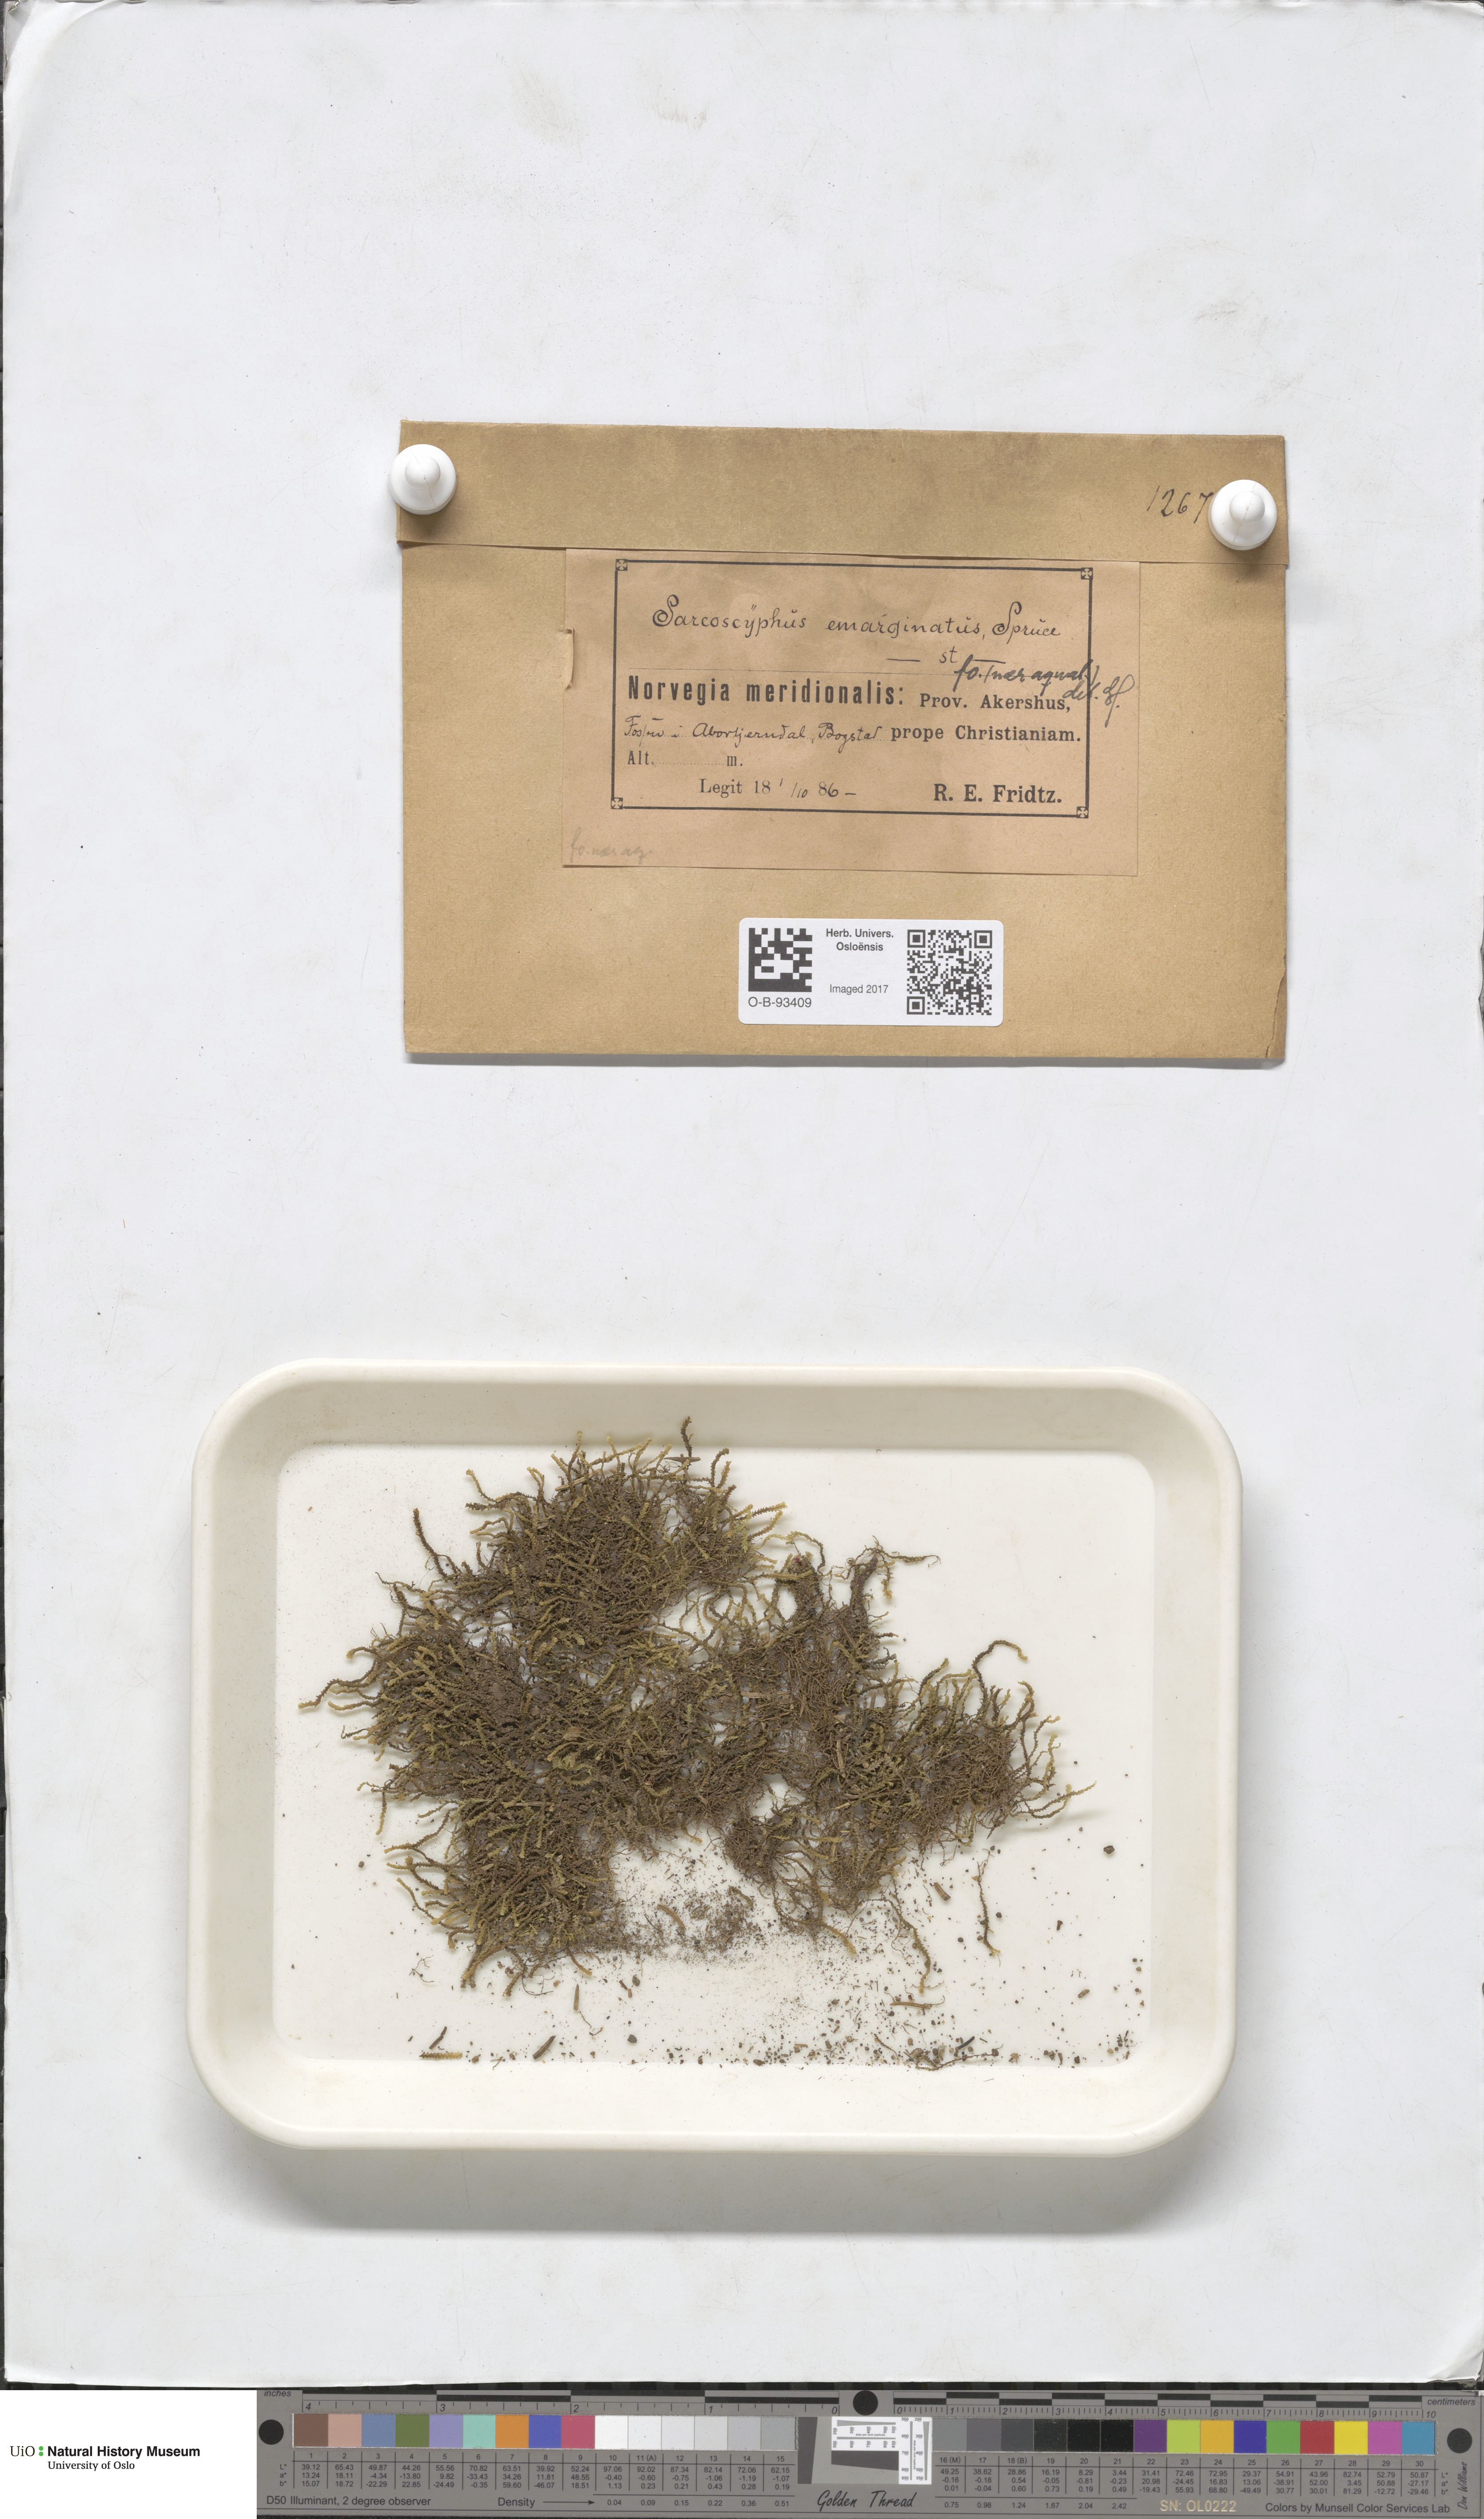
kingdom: Plantae
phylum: Marchantiophyta
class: Jungermanniopsida
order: Jungermanniales
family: Gymnomitriaceae
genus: Gymnomitrion
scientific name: Gymnomitrion brevissimum
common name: Snow rustwort
